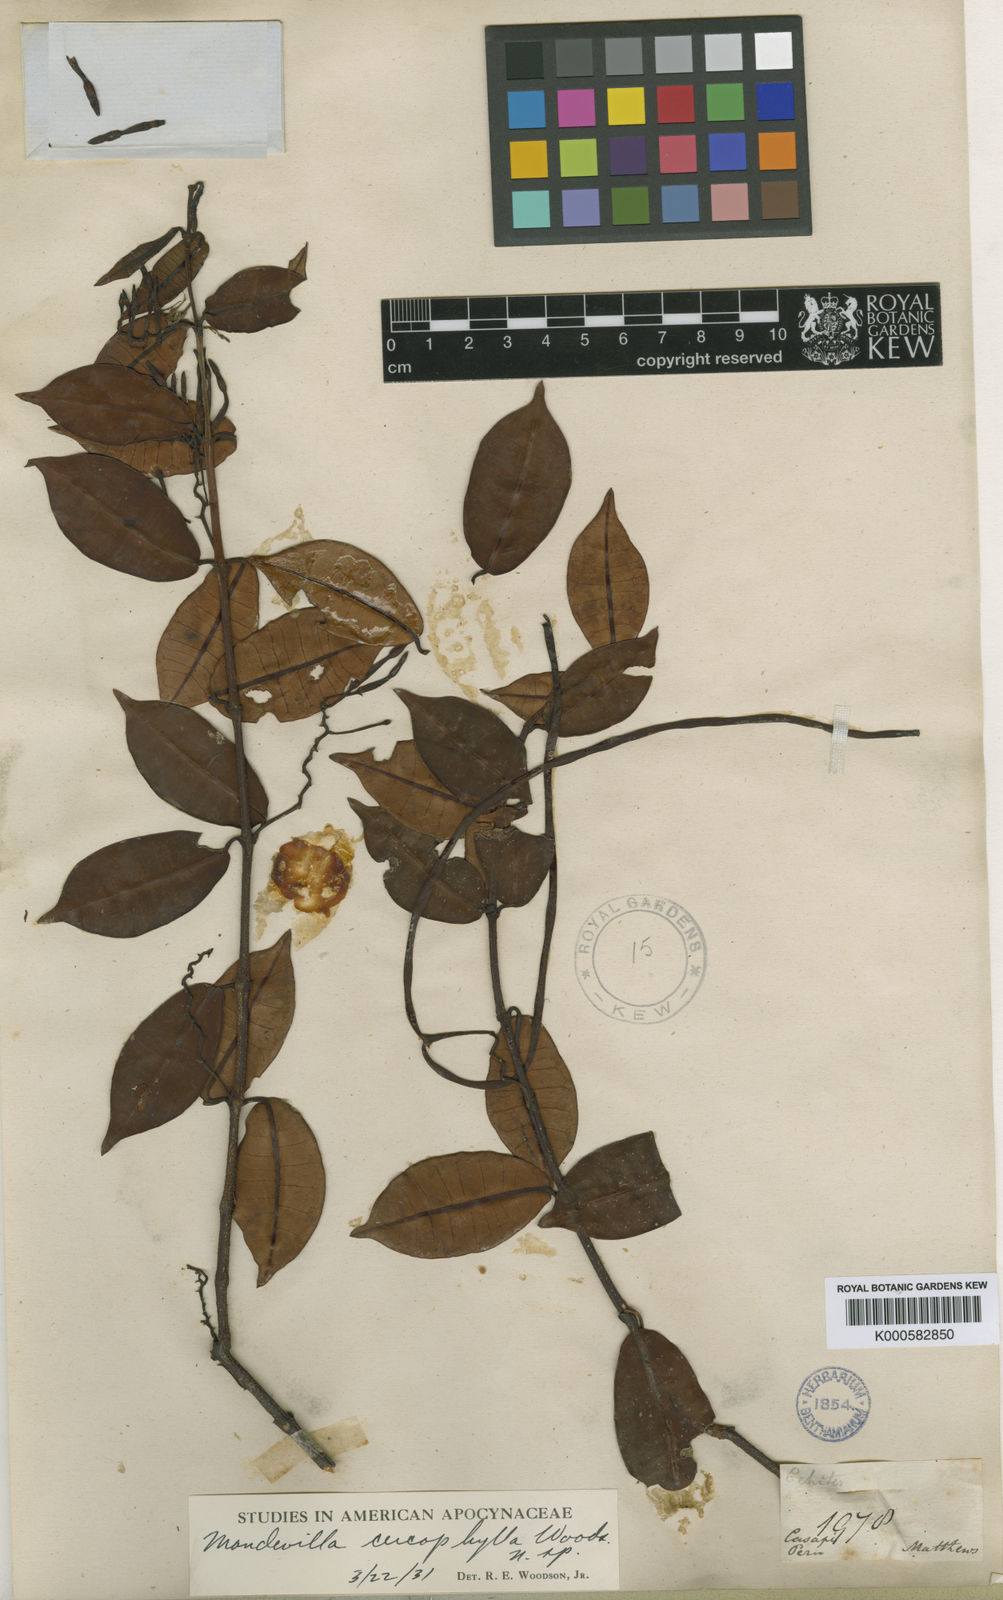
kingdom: Plantae
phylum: Tracheophyta
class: Magnoliopsida
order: Gentianales
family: Apocynaceae
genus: Mandevilla
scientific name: Mandevilla cercophylla
